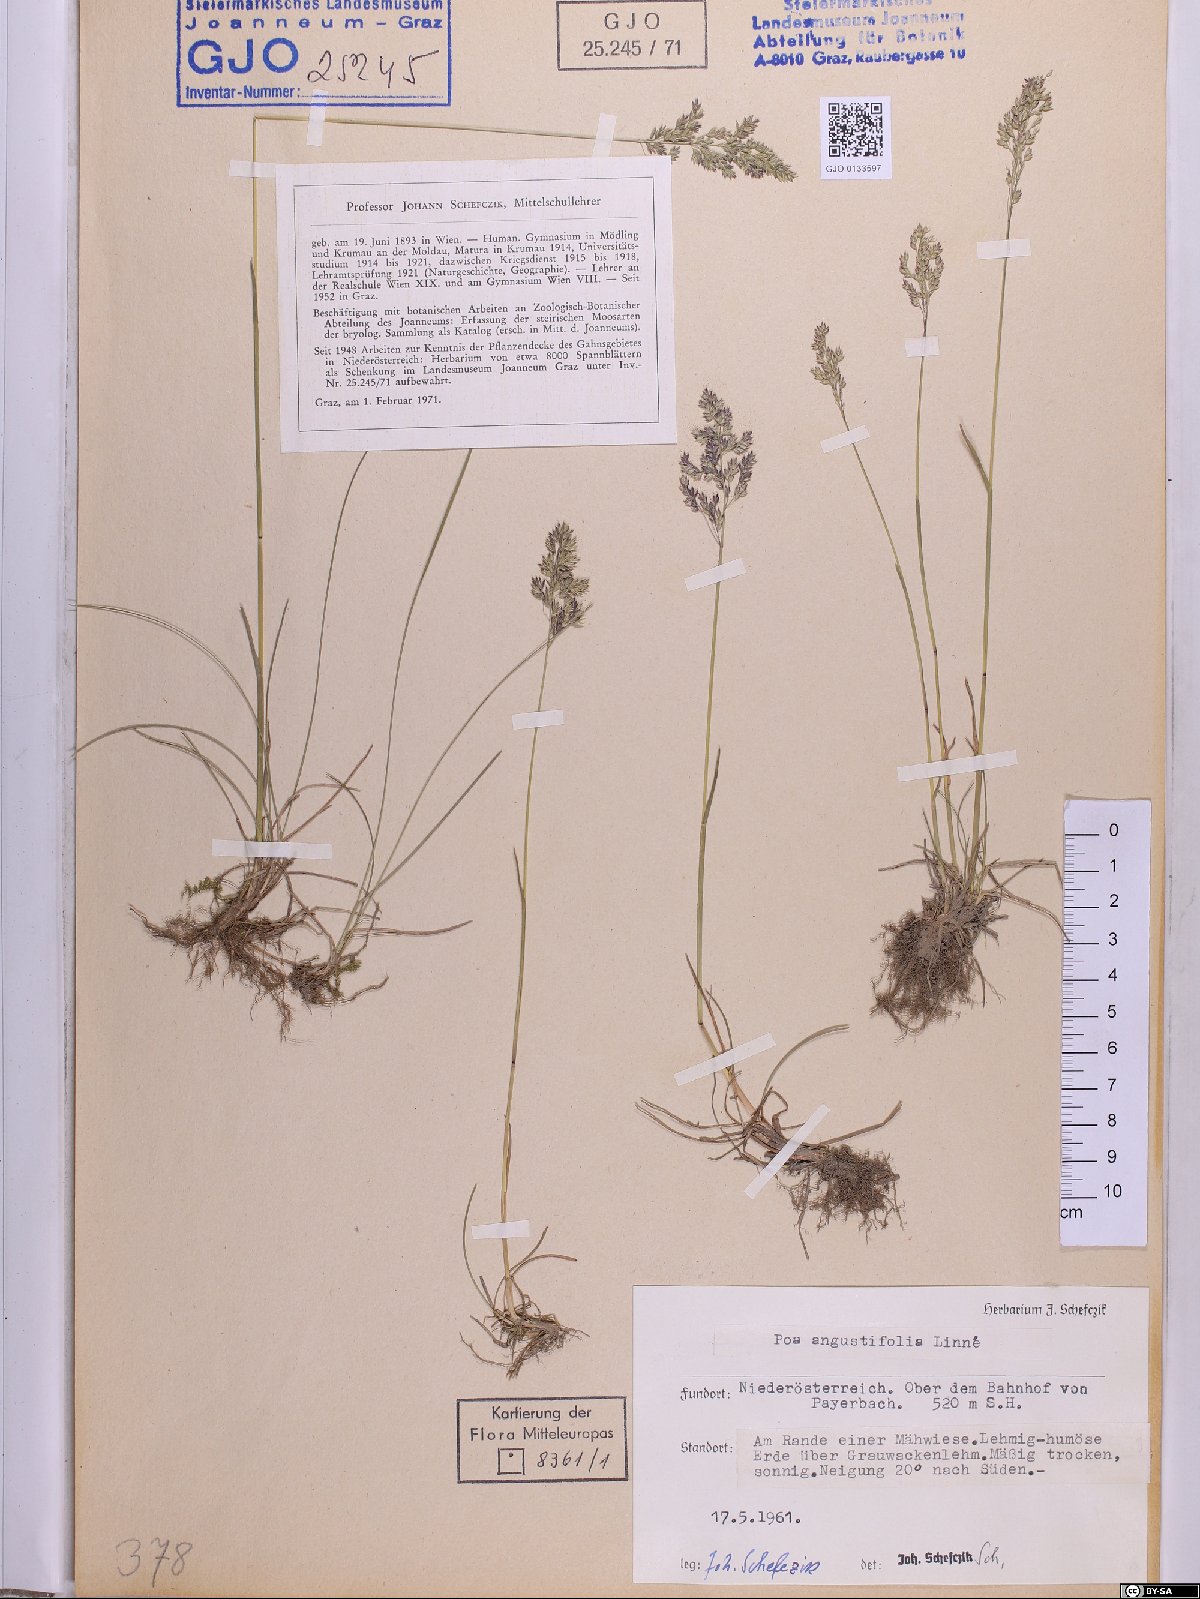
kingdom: Plantae
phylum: Tracheophyta
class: Liliopsida
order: Poales
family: Poaceae
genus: Poa
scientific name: Poa angustifolia
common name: Narrow-leaved meadow-grass
